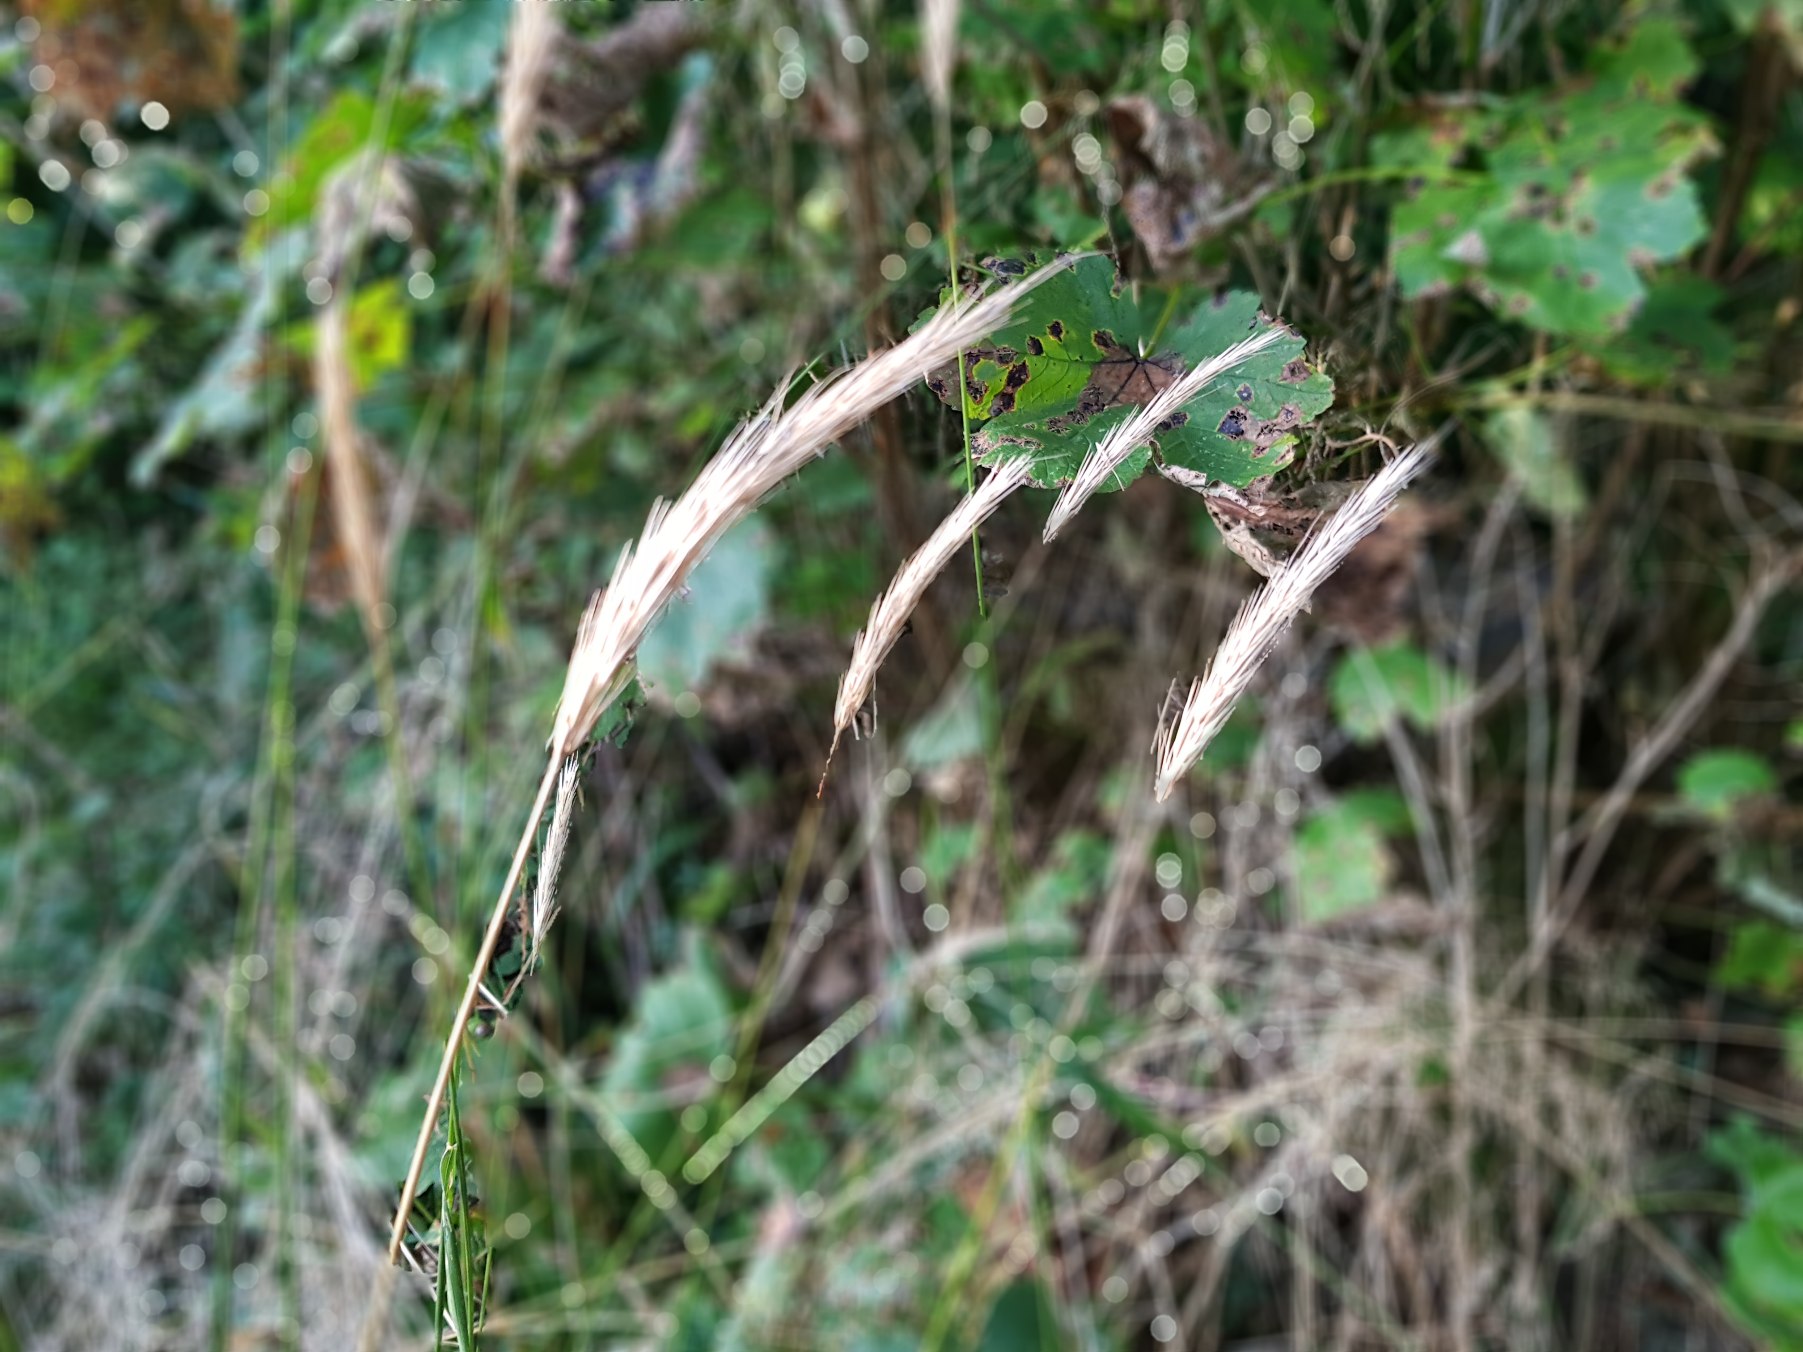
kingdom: Plantae
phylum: Tracheophyta
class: Liliopsida
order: Poales
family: Poaceae
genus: Hordelymus
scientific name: Hordelymus europaeus
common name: Skovbyg
